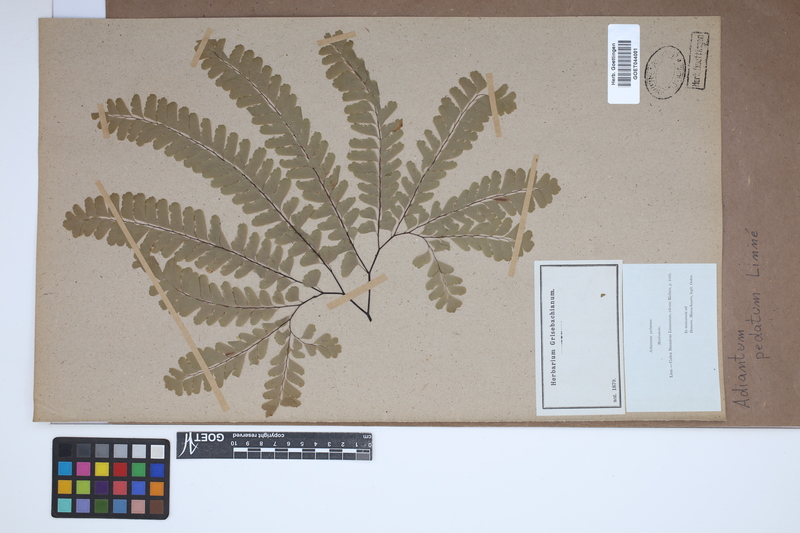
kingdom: Plantae
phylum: Tracheophyta
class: Polypodiopsida
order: Polypodiales
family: Pteridaceae
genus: Adiantum
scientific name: Adiantum pedatum
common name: Five-finger fern
